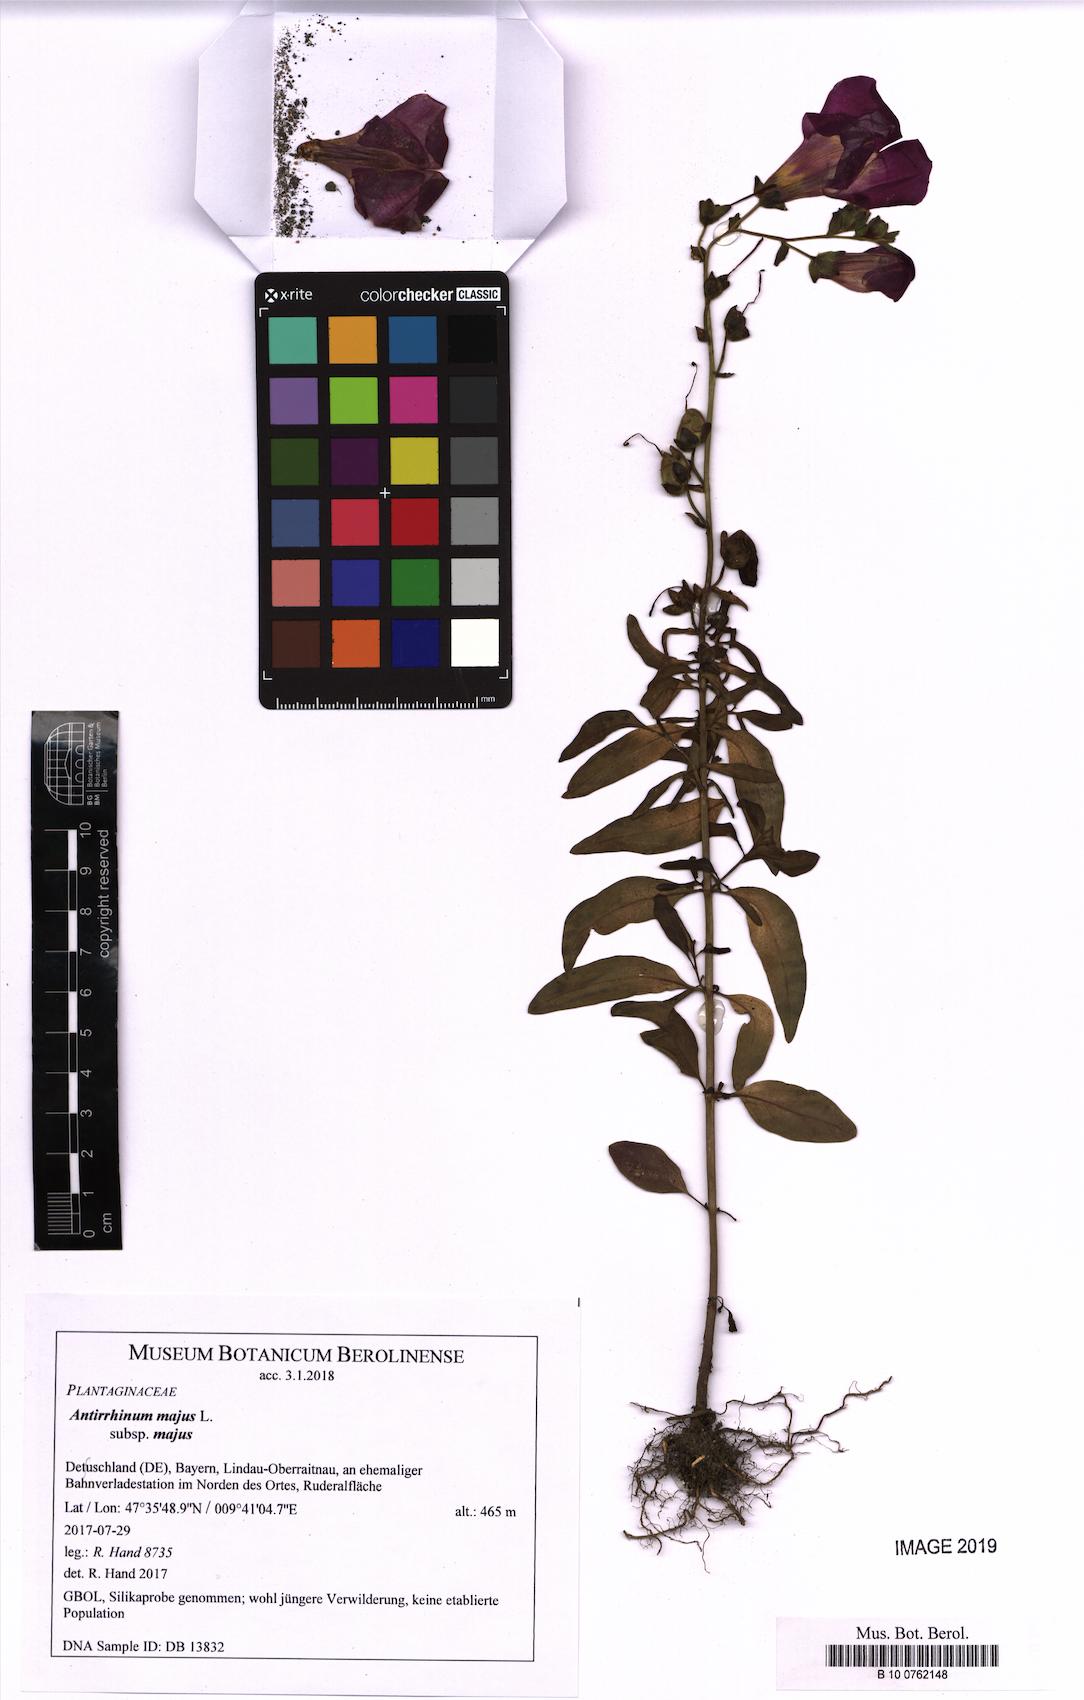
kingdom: Plantae
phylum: Tracheophyta
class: Magnoliopsida
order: Lamiales
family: Plantaginaceae
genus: Antirrhinum
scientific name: Antirrhinum majus
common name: Snapdragon
